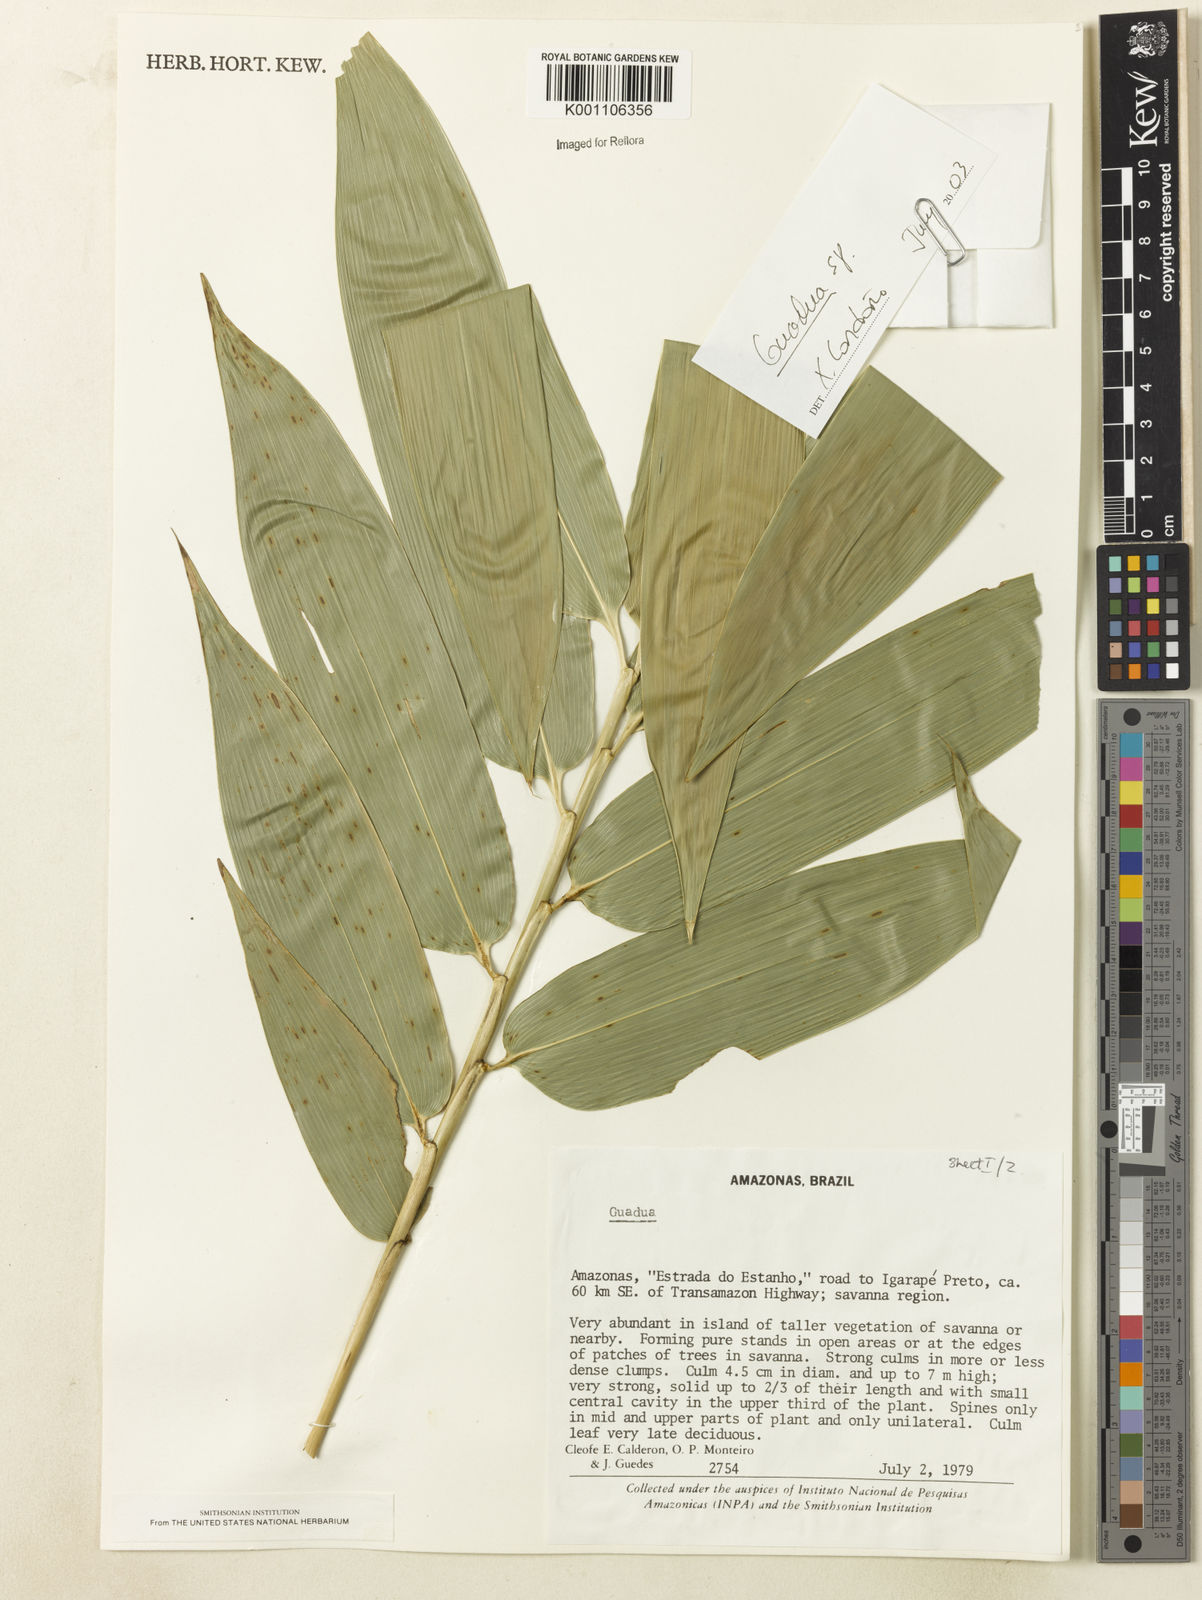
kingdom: Plantae
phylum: Tracheophyta
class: Liliopsida
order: Poales
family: Poaceae
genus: Guadua
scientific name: Guadua
